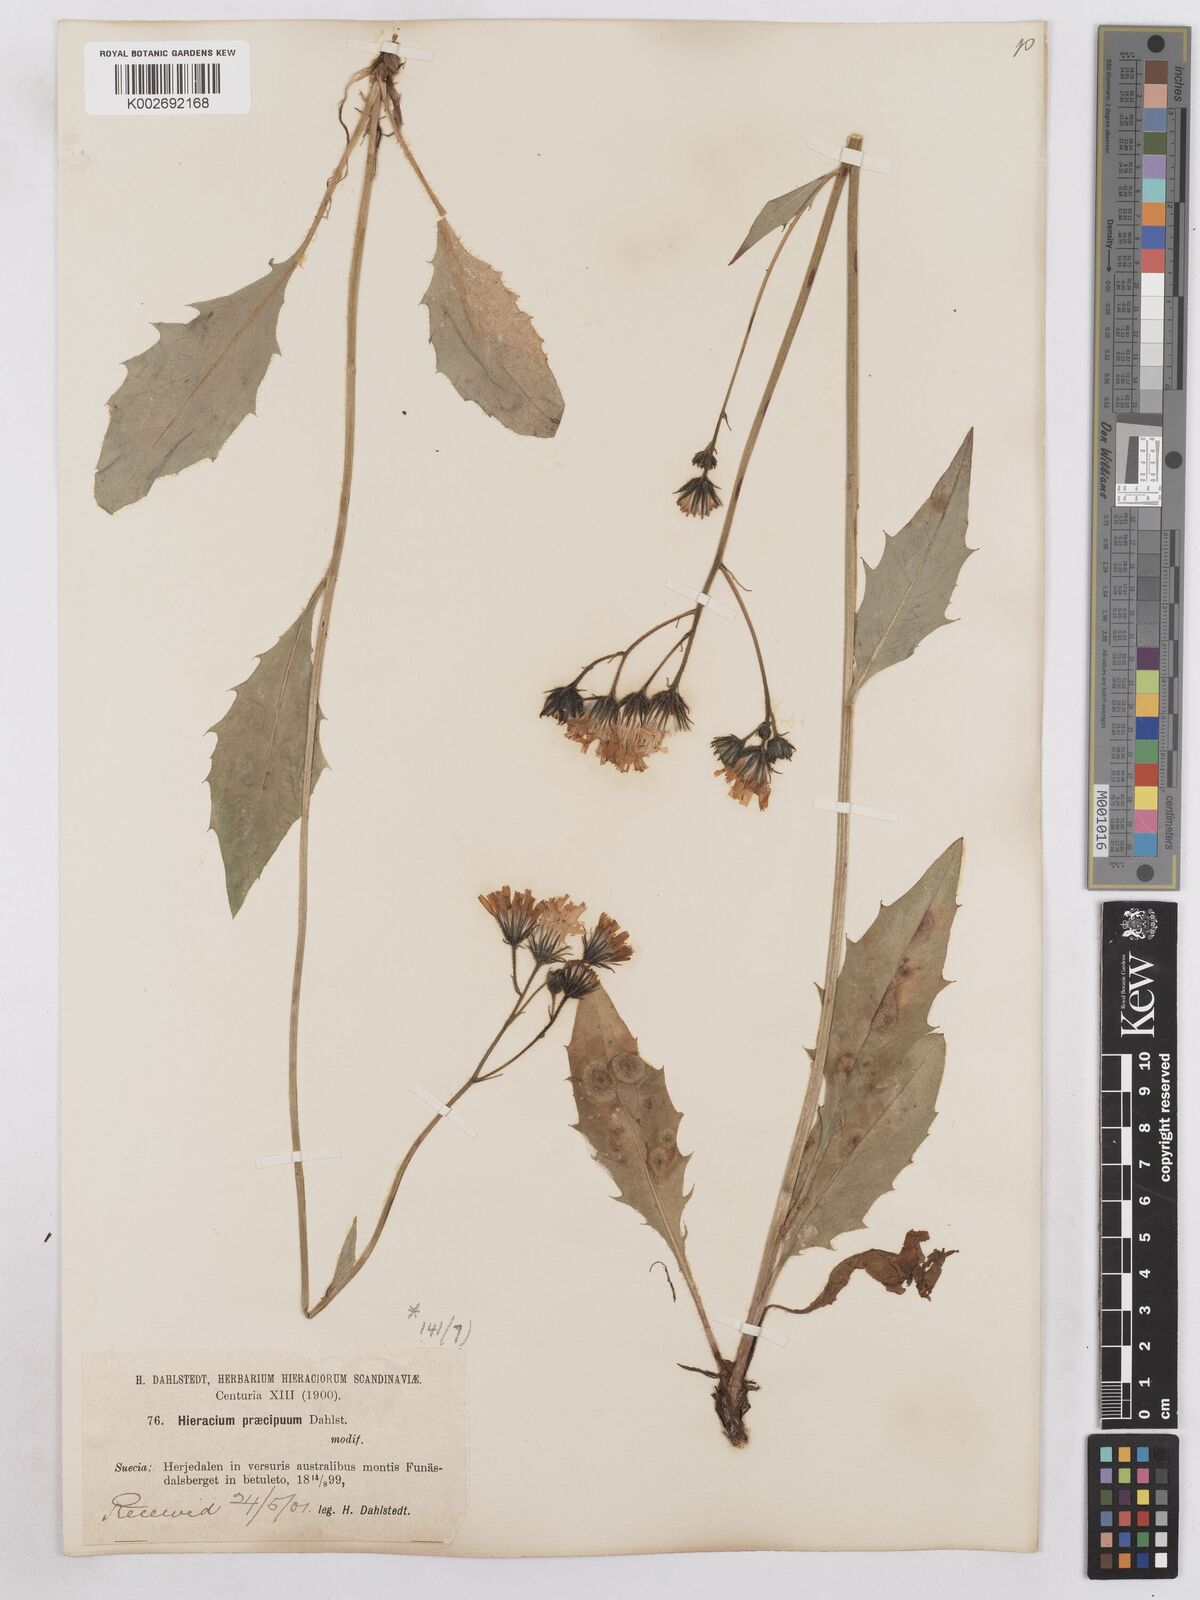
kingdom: Plantae
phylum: Tracheophyta
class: Magnoliopsida
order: Asterales
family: Asteraceae
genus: Hieracium
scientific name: Hieracium diaphanoides
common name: Fine-bracted hawkweed
